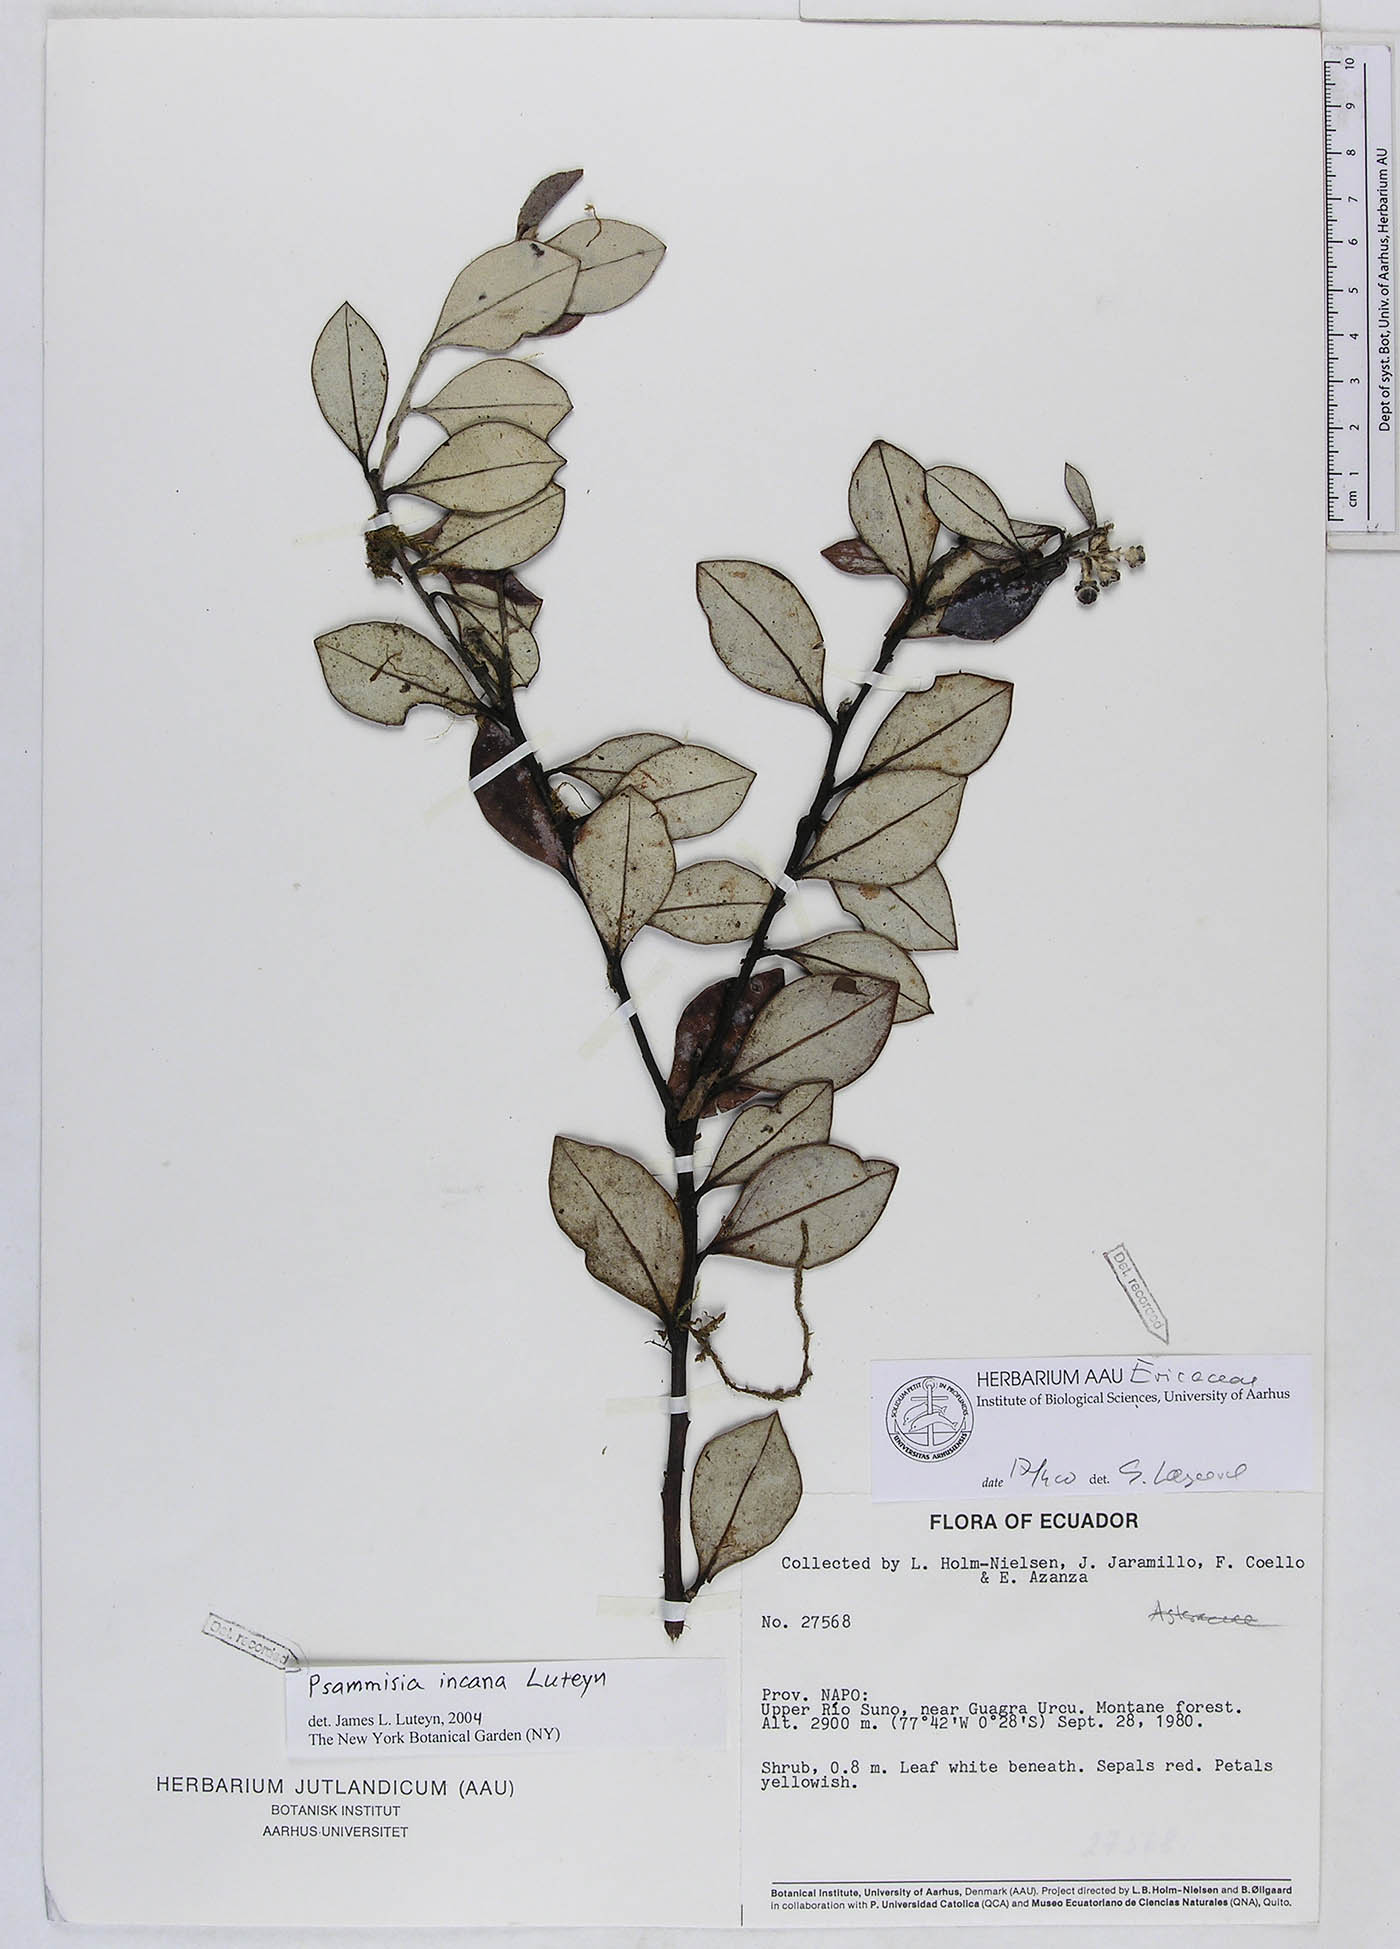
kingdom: Plantae
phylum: Tracheophyta
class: Magnoliopsida
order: Ericales
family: Ericaceae
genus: Psammisia
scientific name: Psammisia incana
